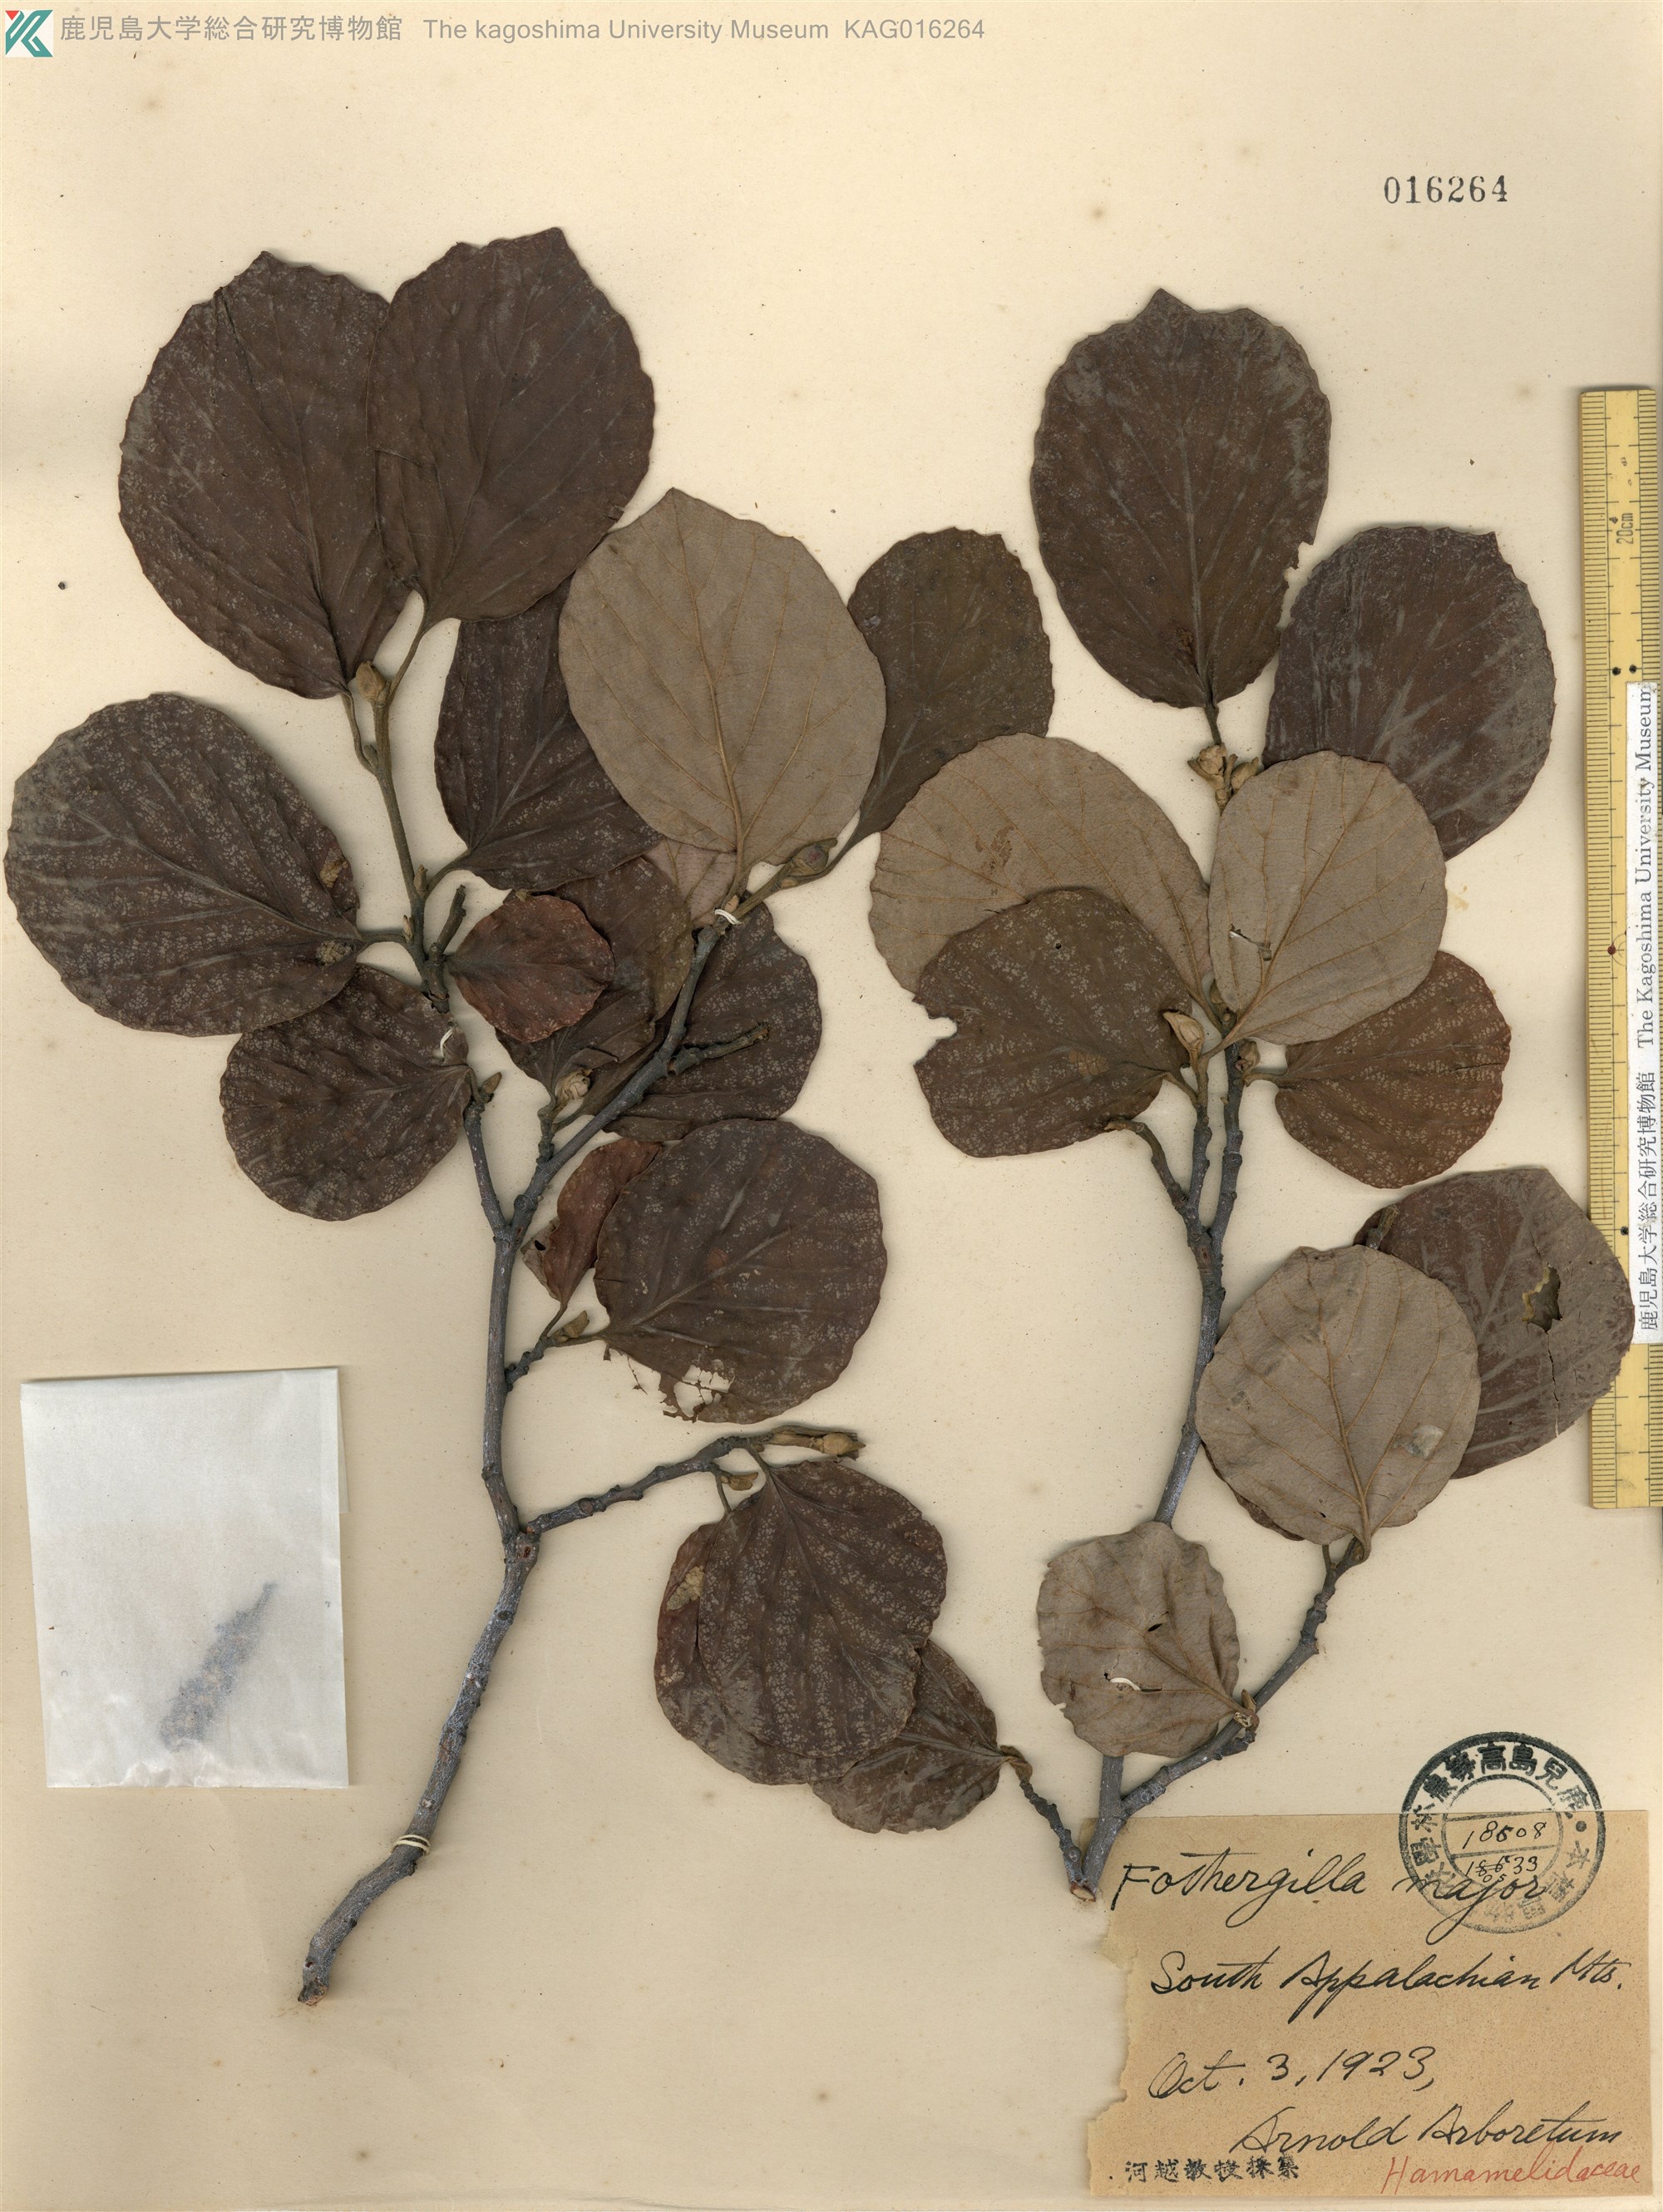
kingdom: Plantae
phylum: Tracheophyta
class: Magnoliopsida
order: Saxifragales
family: Hamamelidaceae
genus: Fothergilla
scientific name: Fothergilla latifolia
